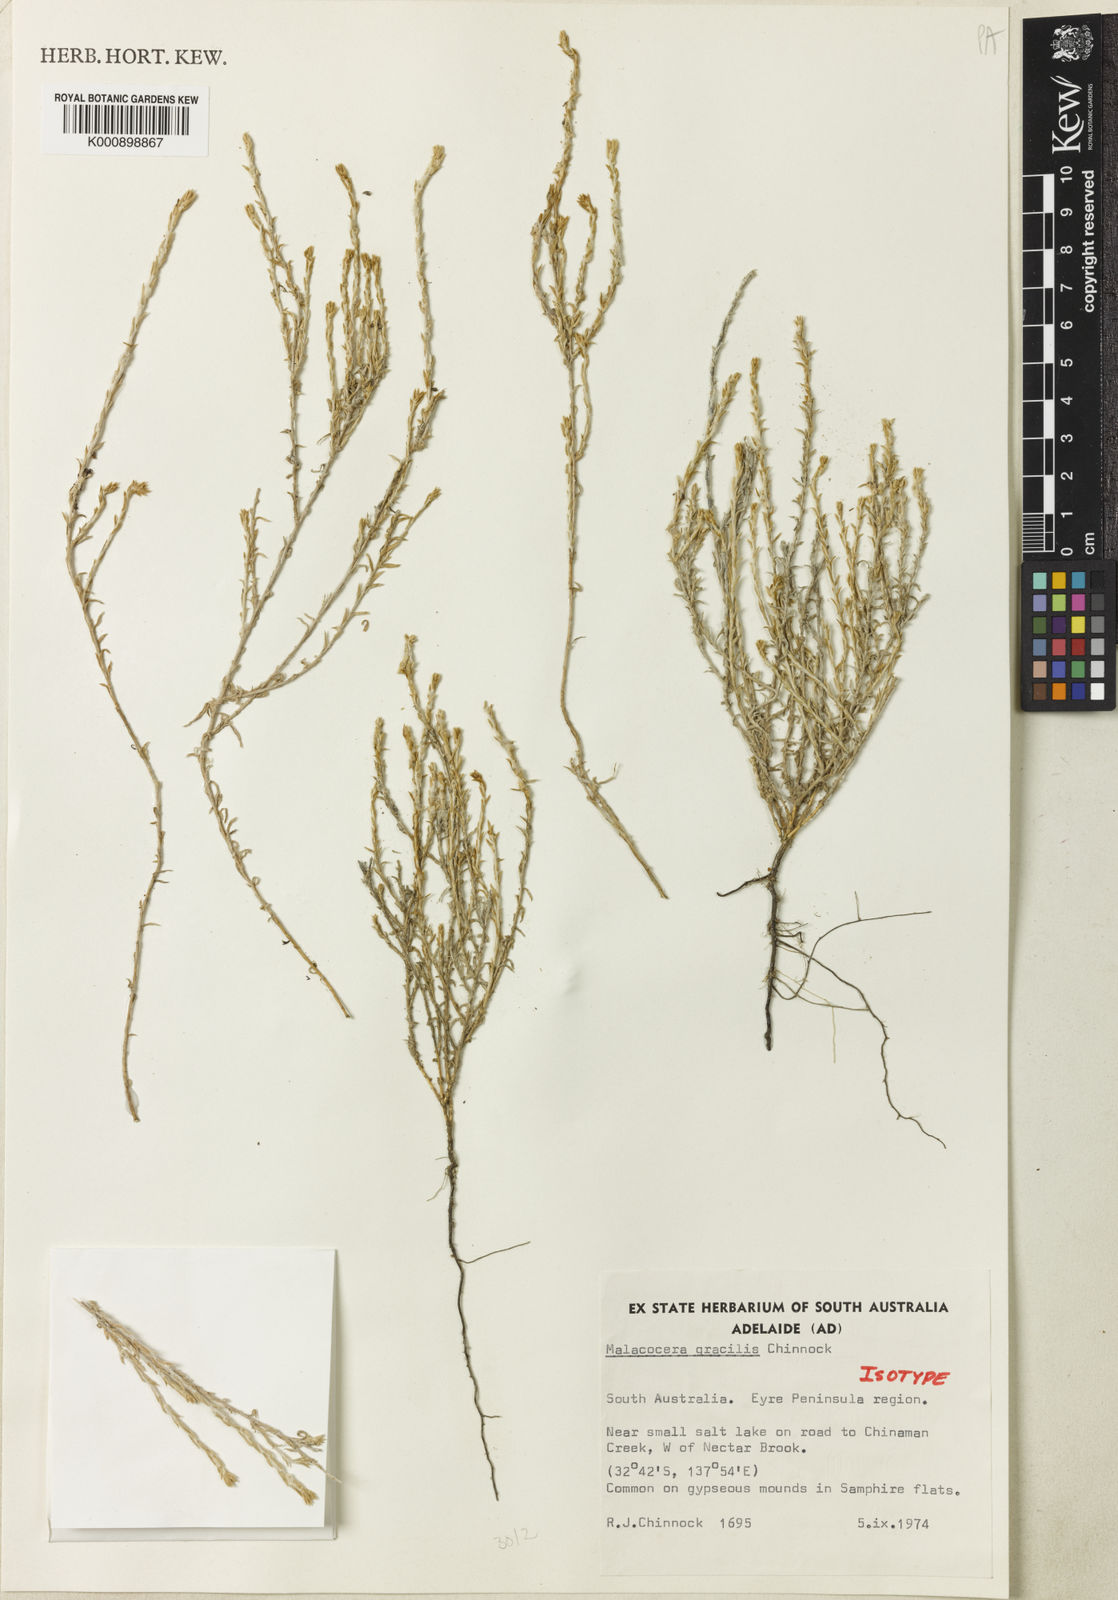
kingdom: Plantae
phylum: Tracheophyta
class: Magnoliopsida
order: Caryophyllales
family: Amaranthaceae
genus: Malacocera
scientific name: Malacocera gracilis
